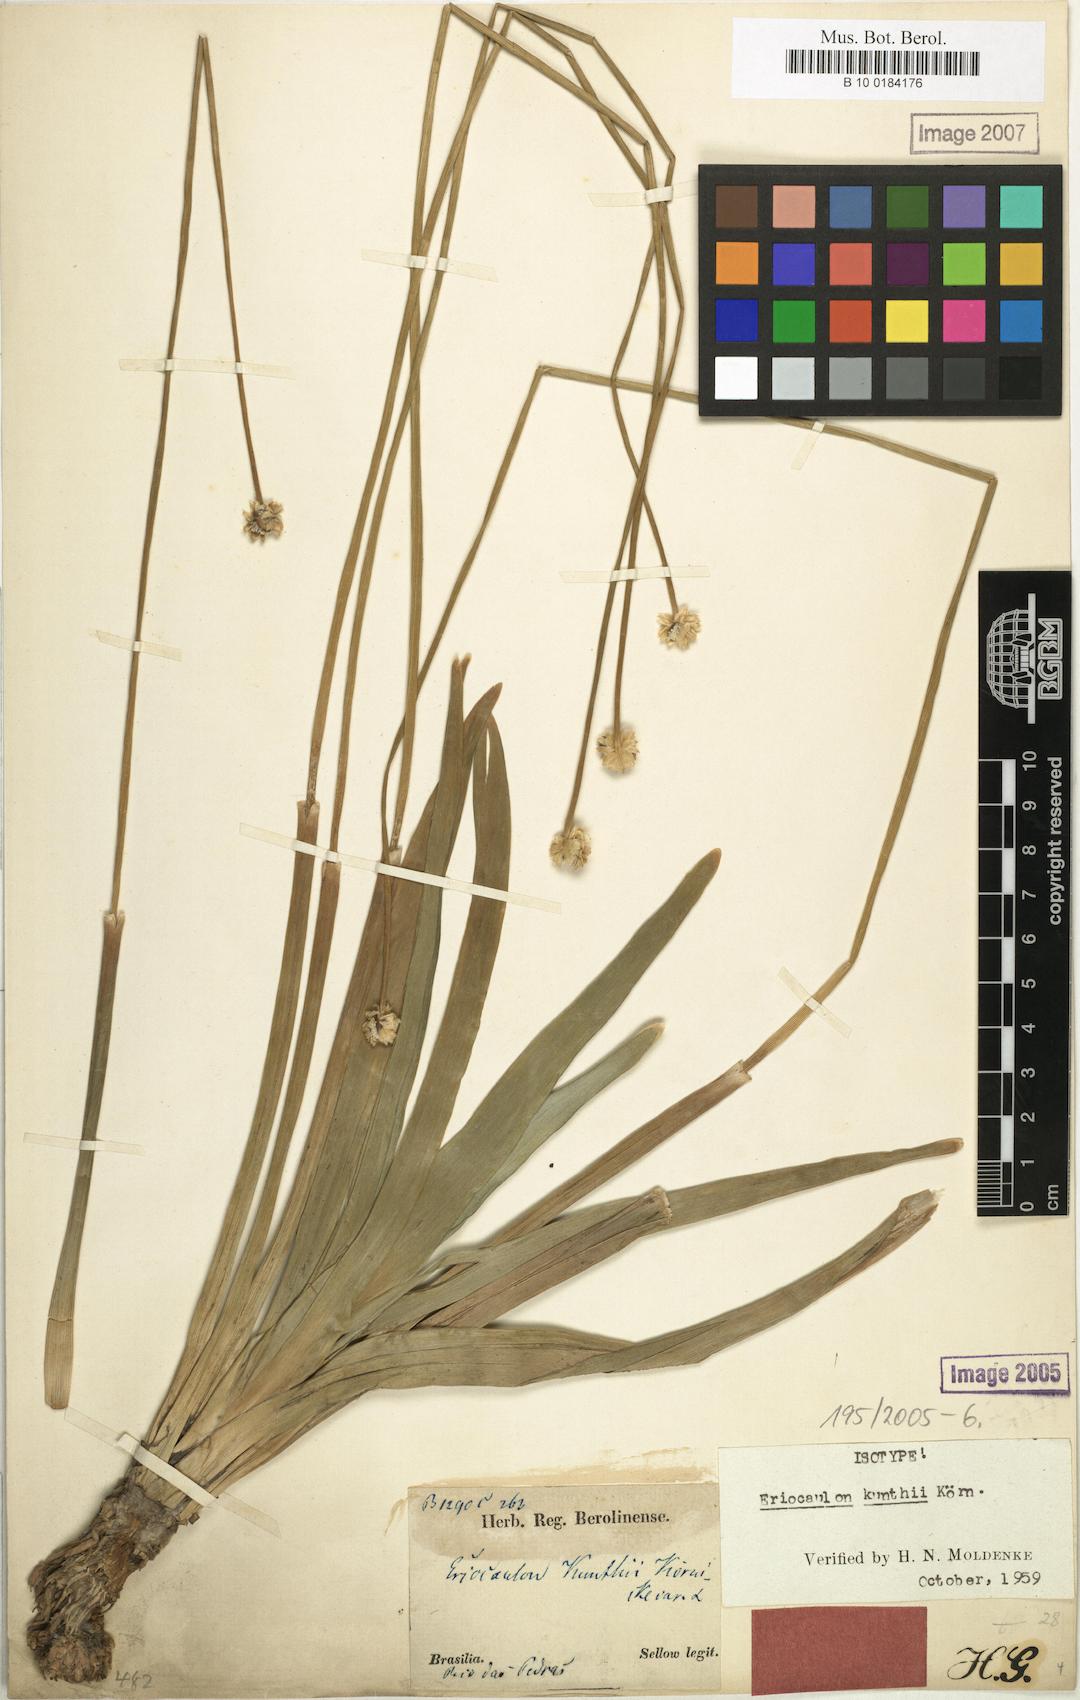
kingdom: Plantae
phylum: Tracheophyta
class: Liliopsida
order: Poales
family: Eriocaulaceae
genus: Eriocaulon
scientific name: Eriocaulon ligulatum
